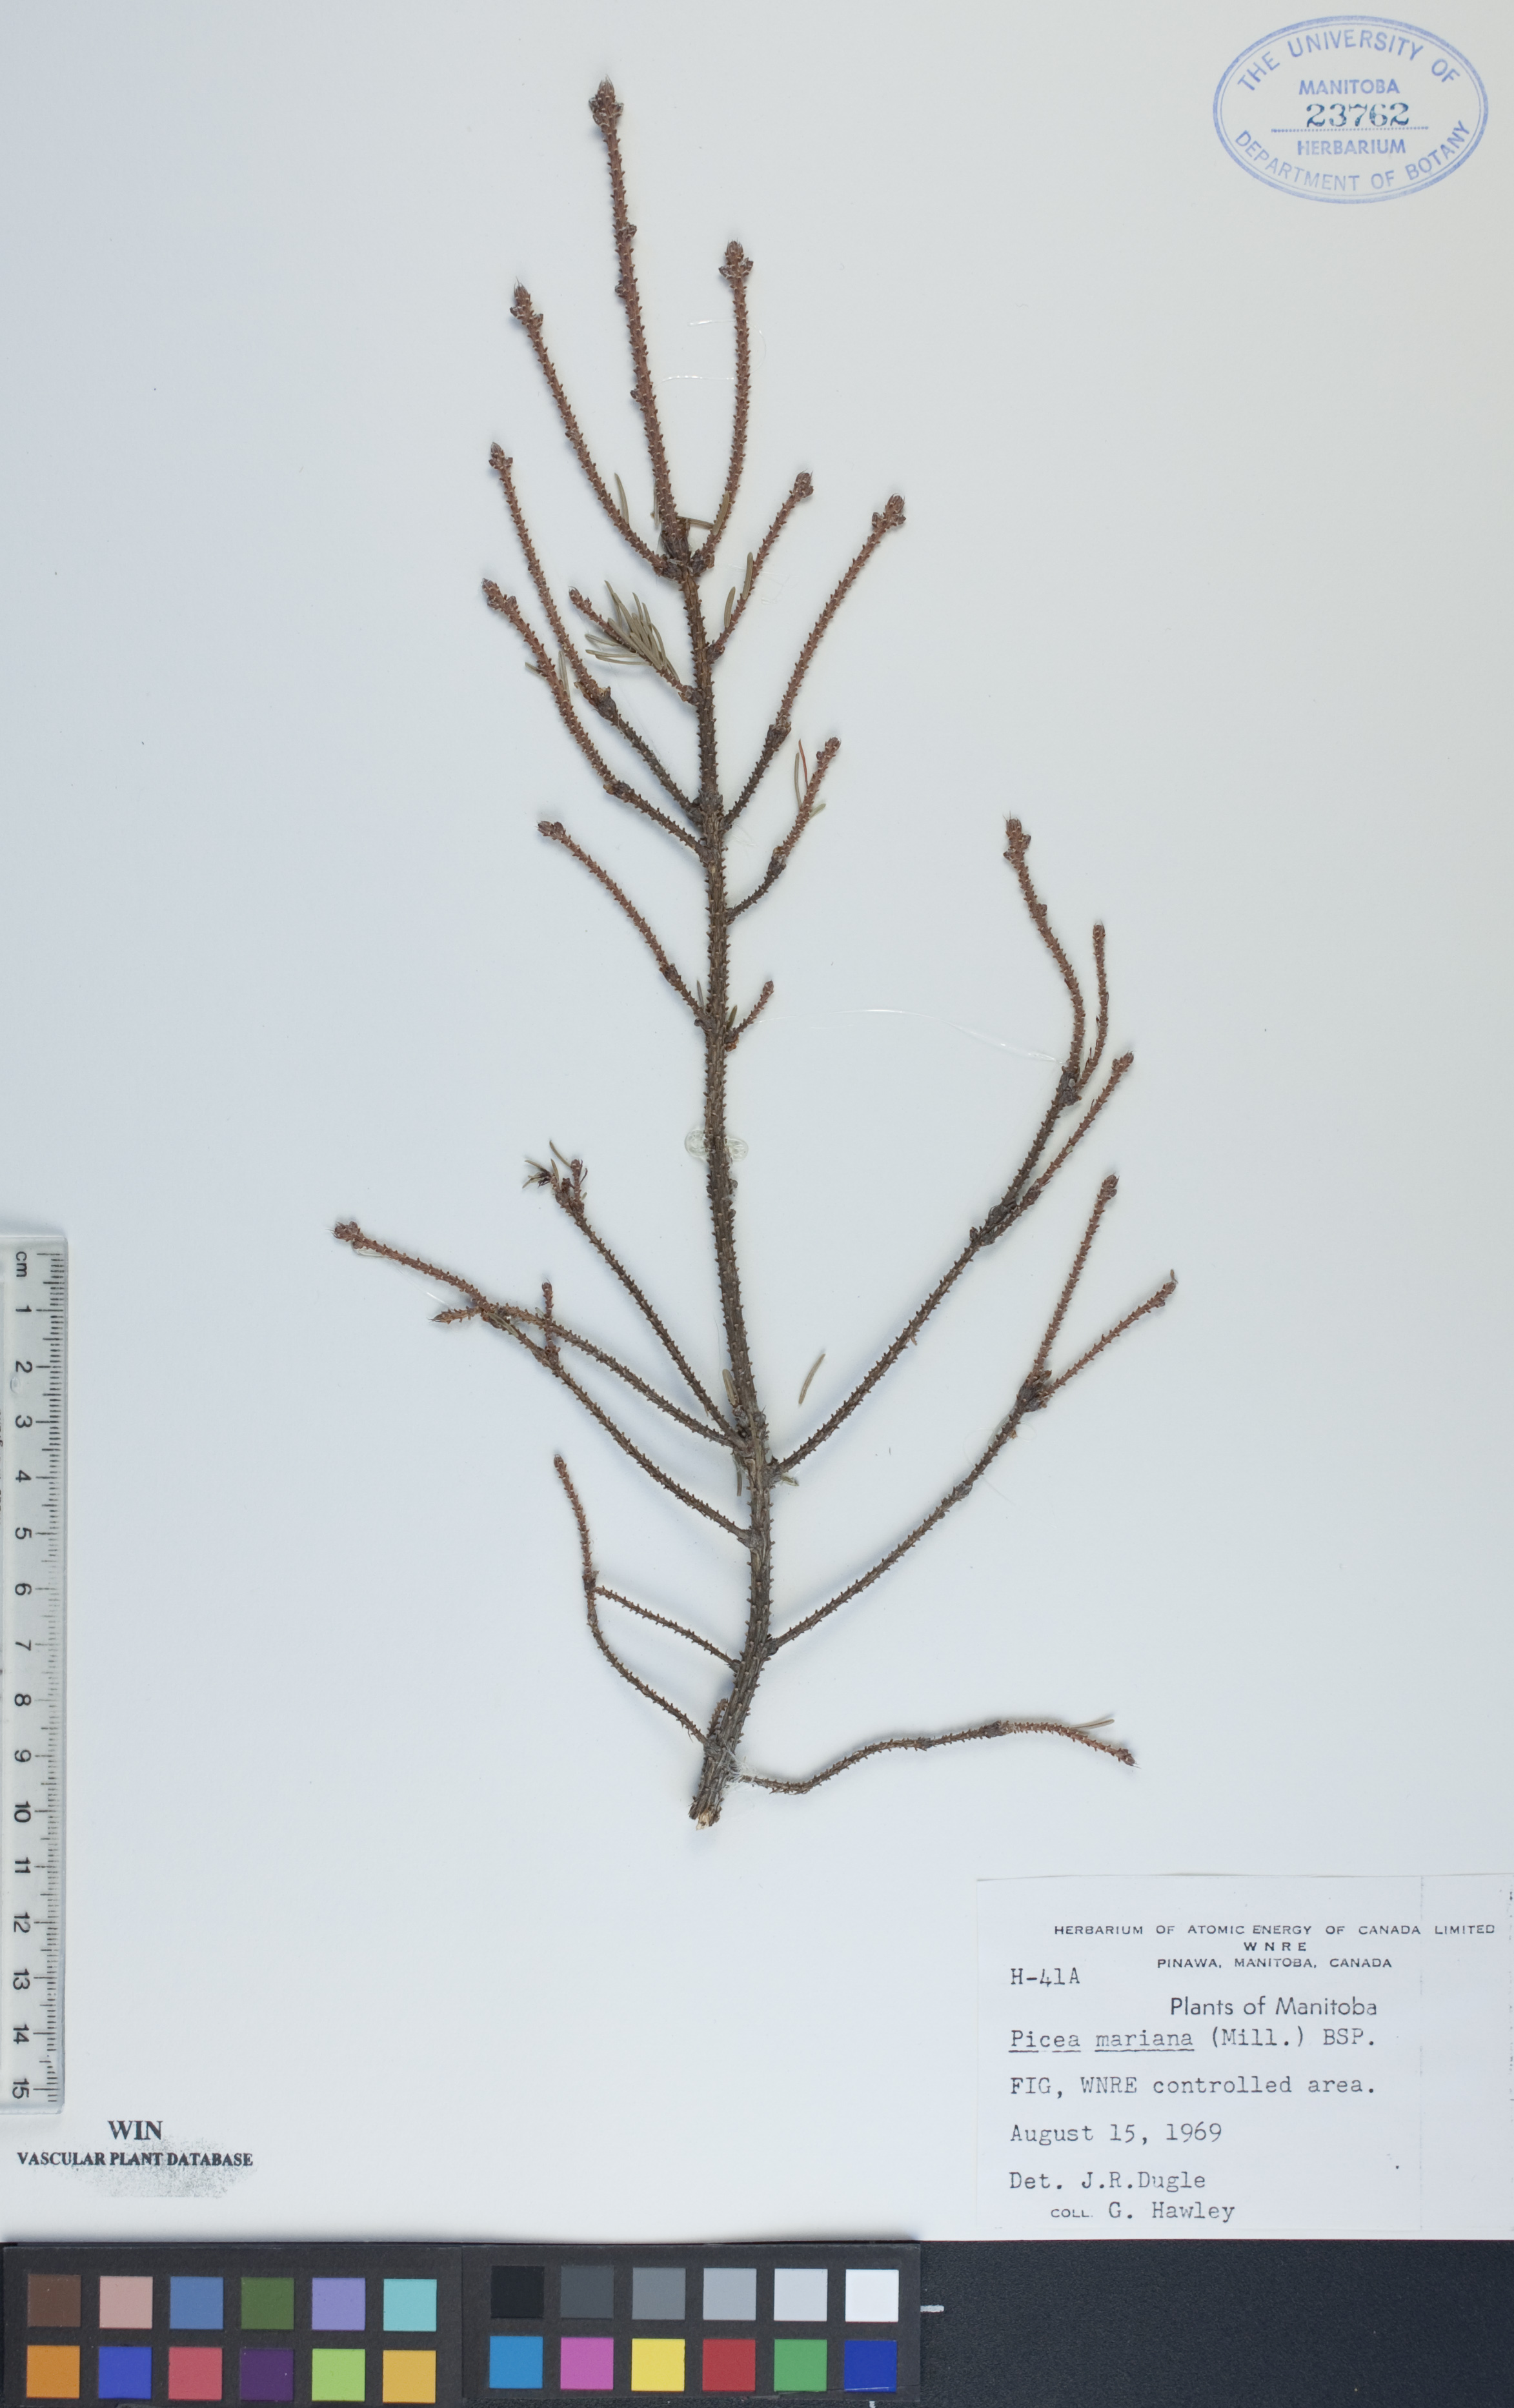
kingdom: Plantae
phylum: Tracheophyta
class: Pinopsida
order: Pinales
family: Pinaceae
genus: Picea
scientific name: Picea mariana
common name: Black spruce
